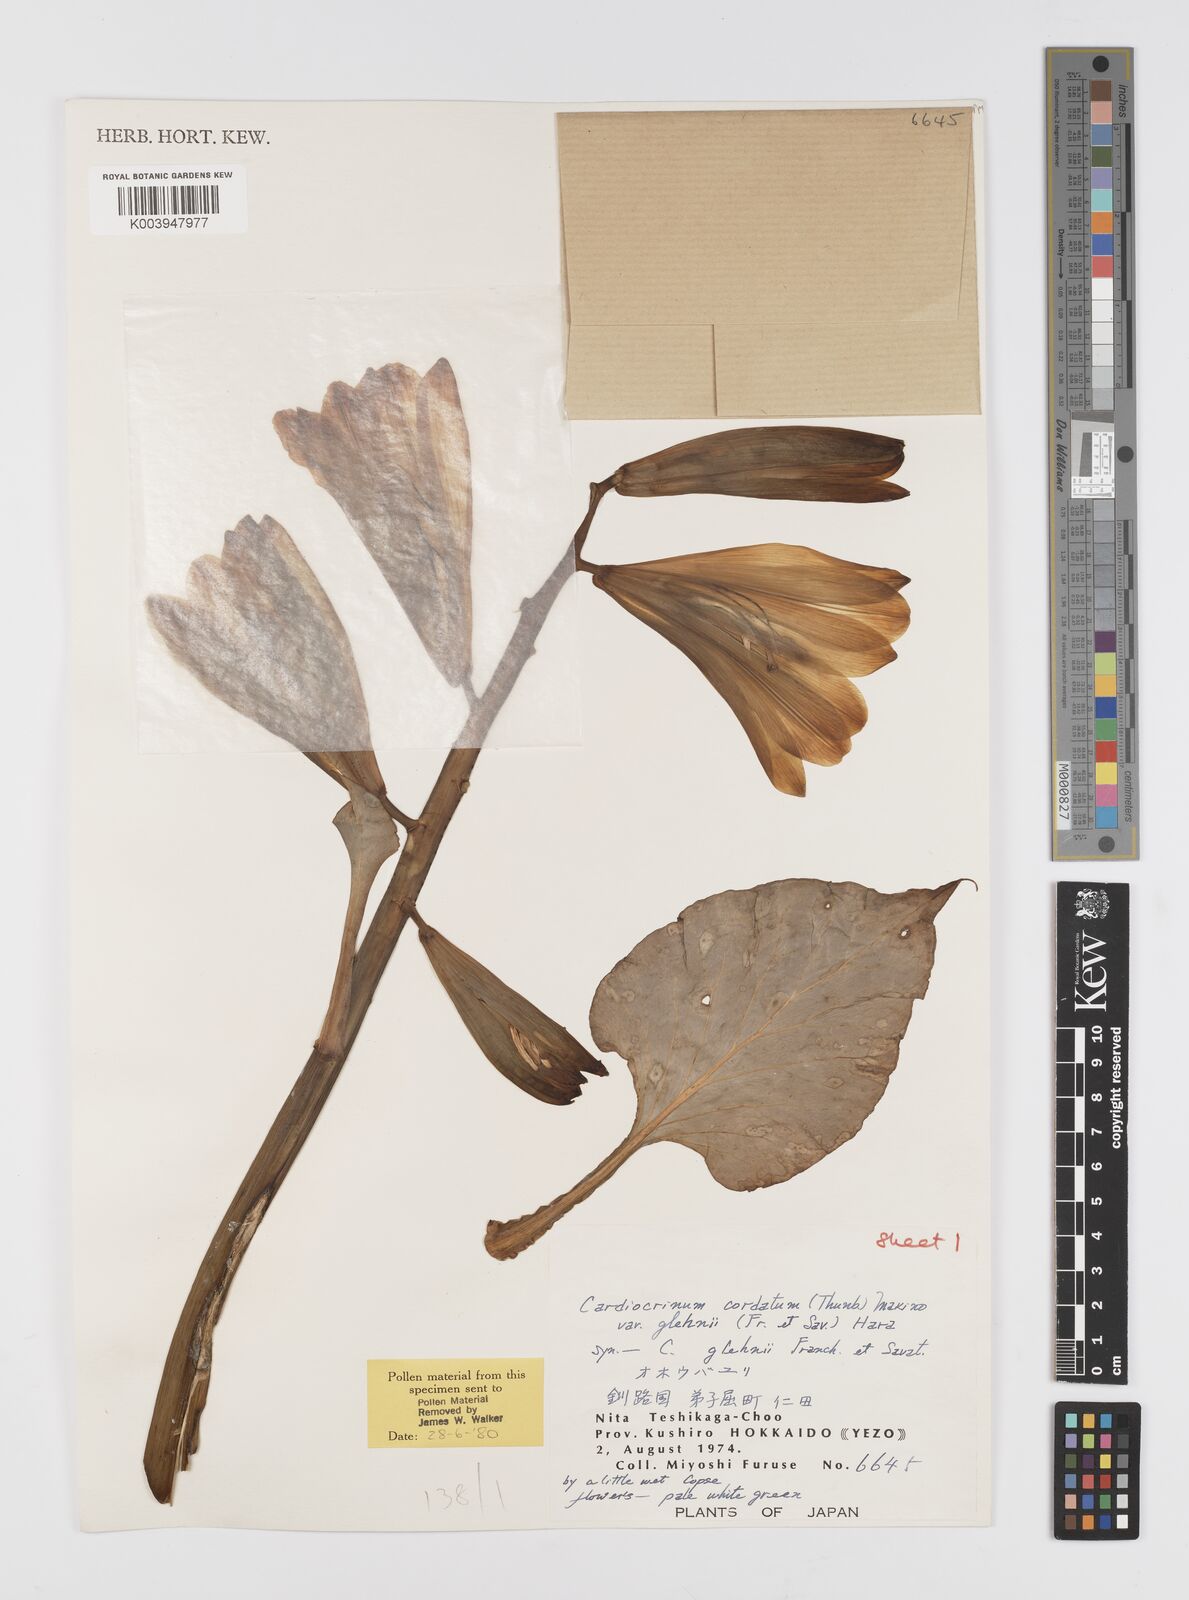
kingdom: Plantae
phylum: Tracheophyta
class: Liliopsida
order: Liliales
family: Liliaceae
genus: Cardiocrinum
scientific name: Cardiocrinum cordatum
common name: Lily
